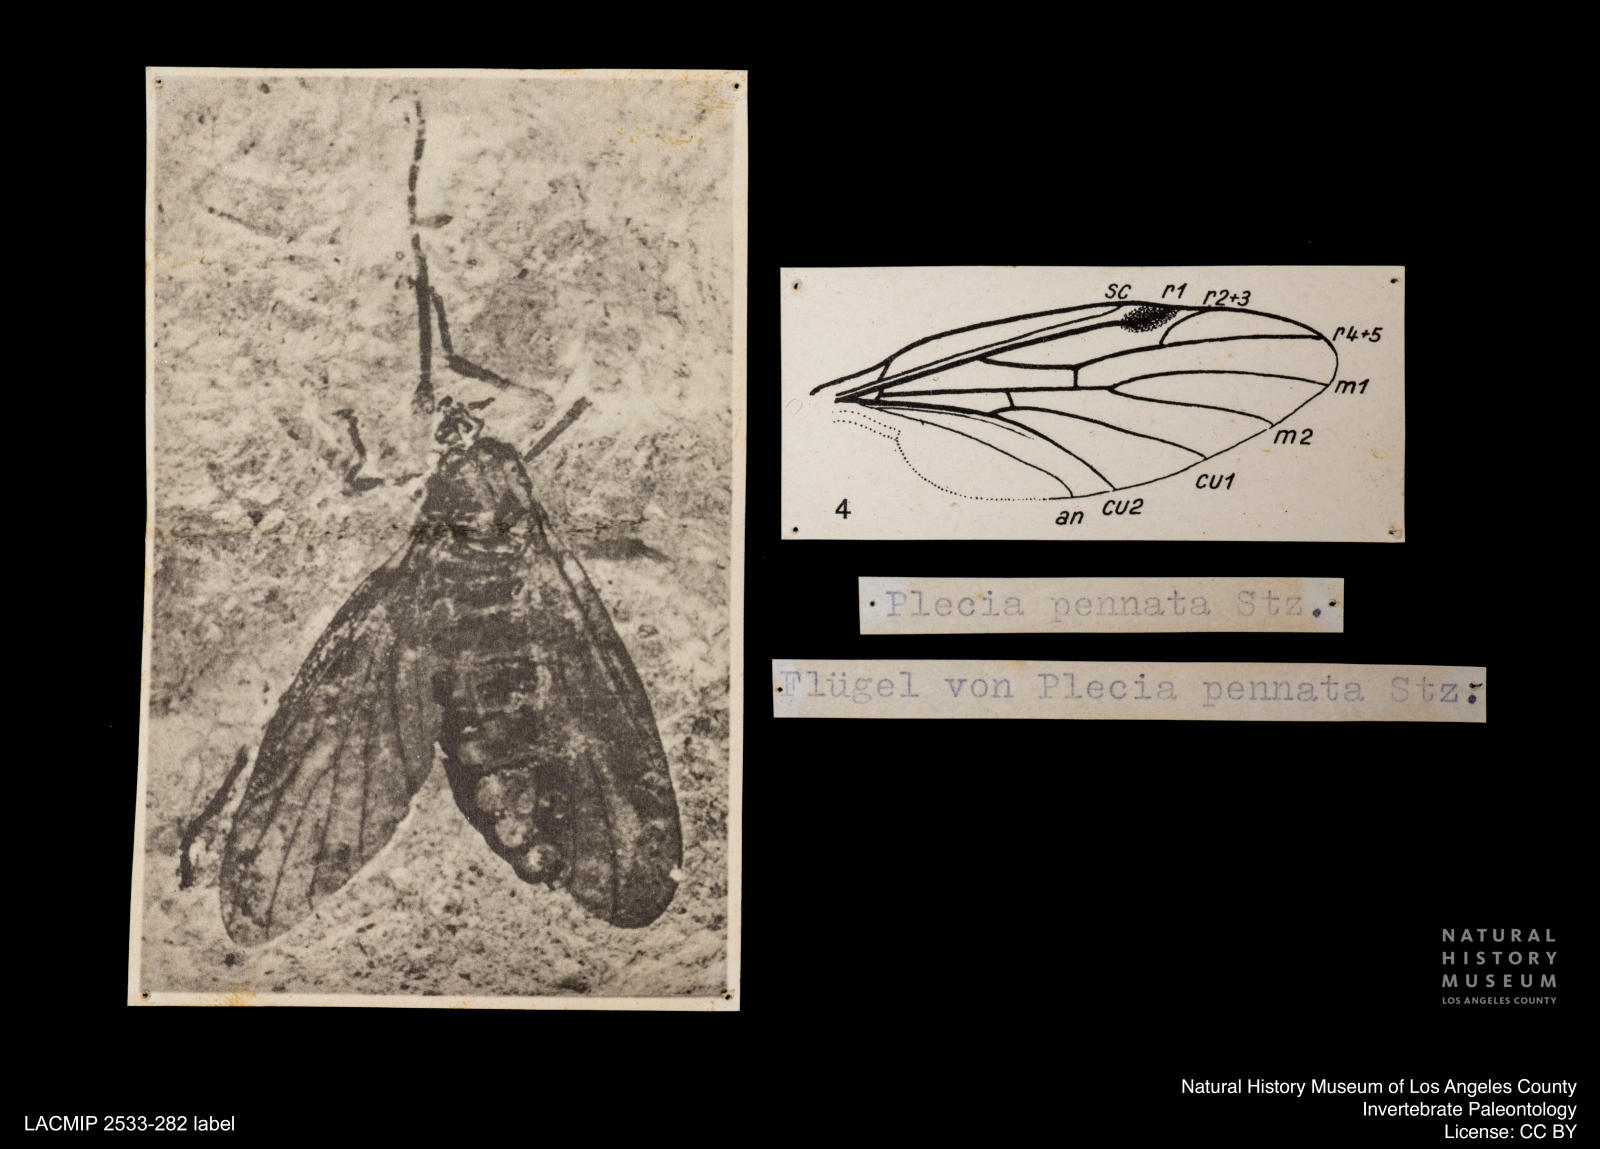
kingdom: Animalia
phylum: Arthropoda
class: Insecta
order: Diptera
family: Bibionidae
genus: Plecia
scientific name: Plecia pennata
